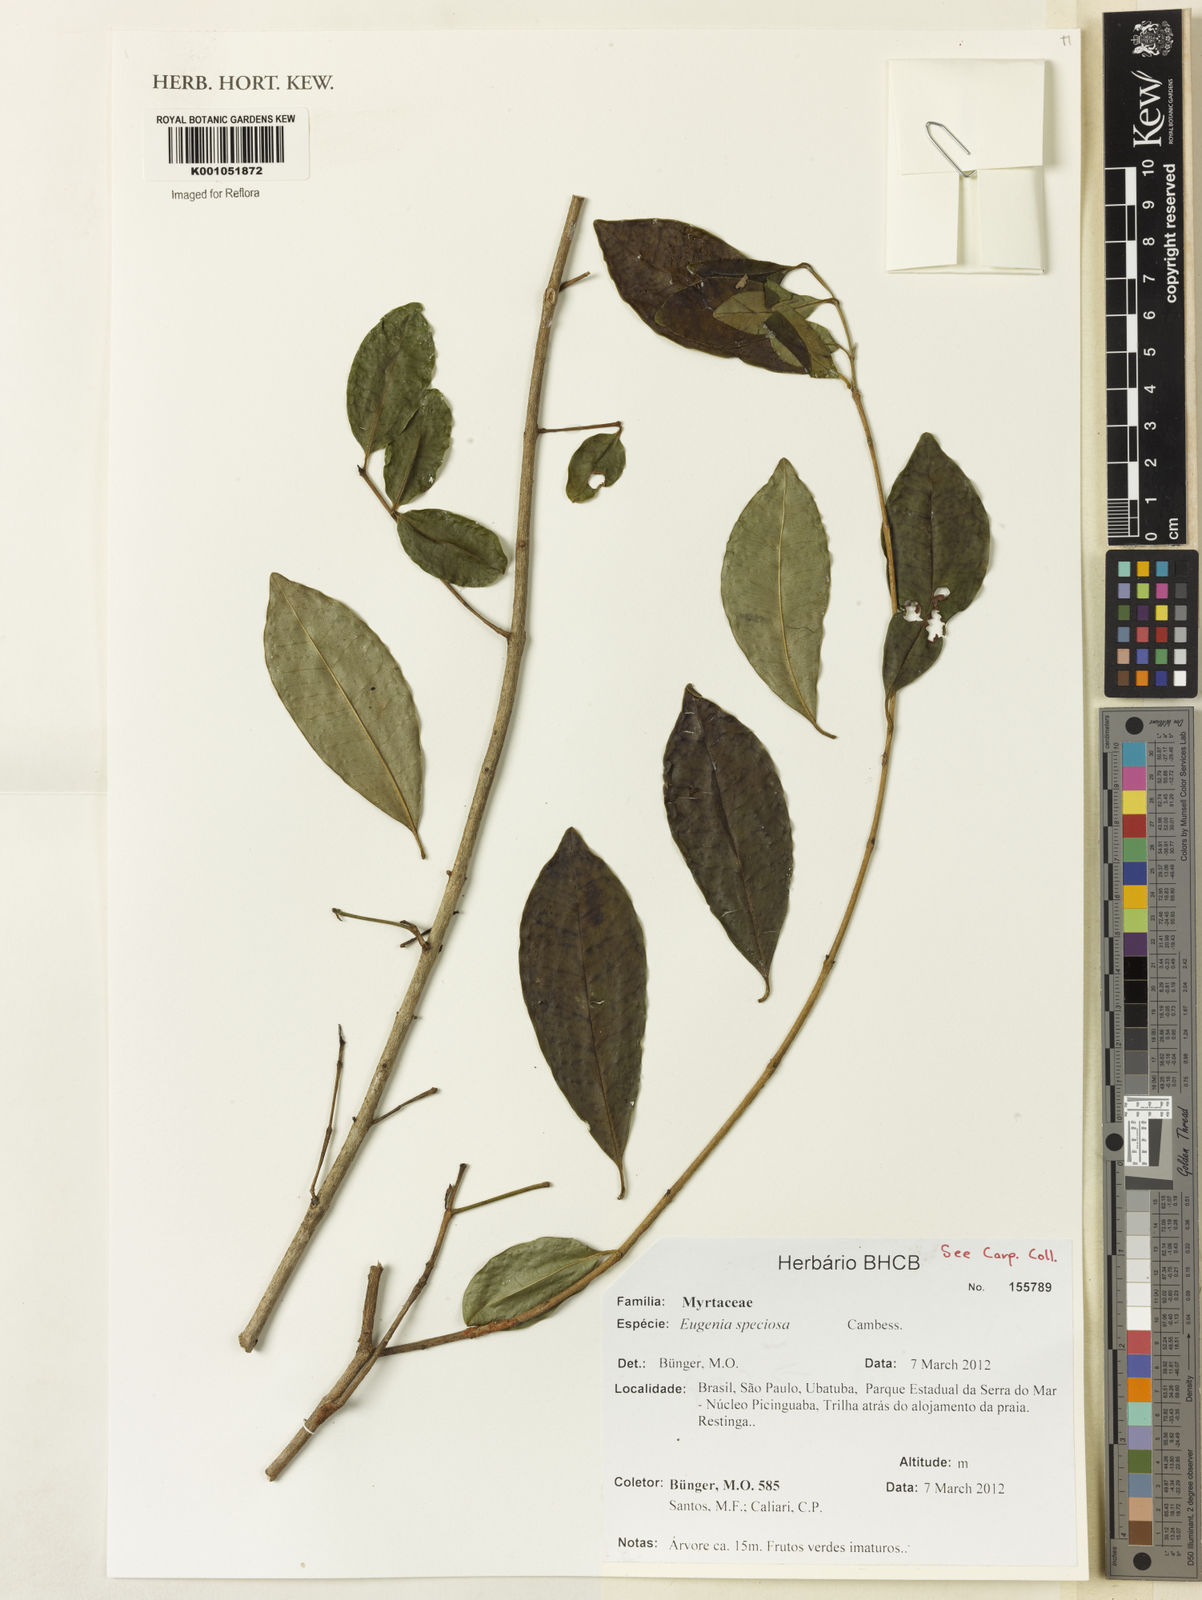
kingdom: Plantae
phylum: Tracheophyta
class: Magnoliopsida
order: Myrtales
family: Myrtaceae
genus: Eugenia
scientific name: Eugenia speciosa
